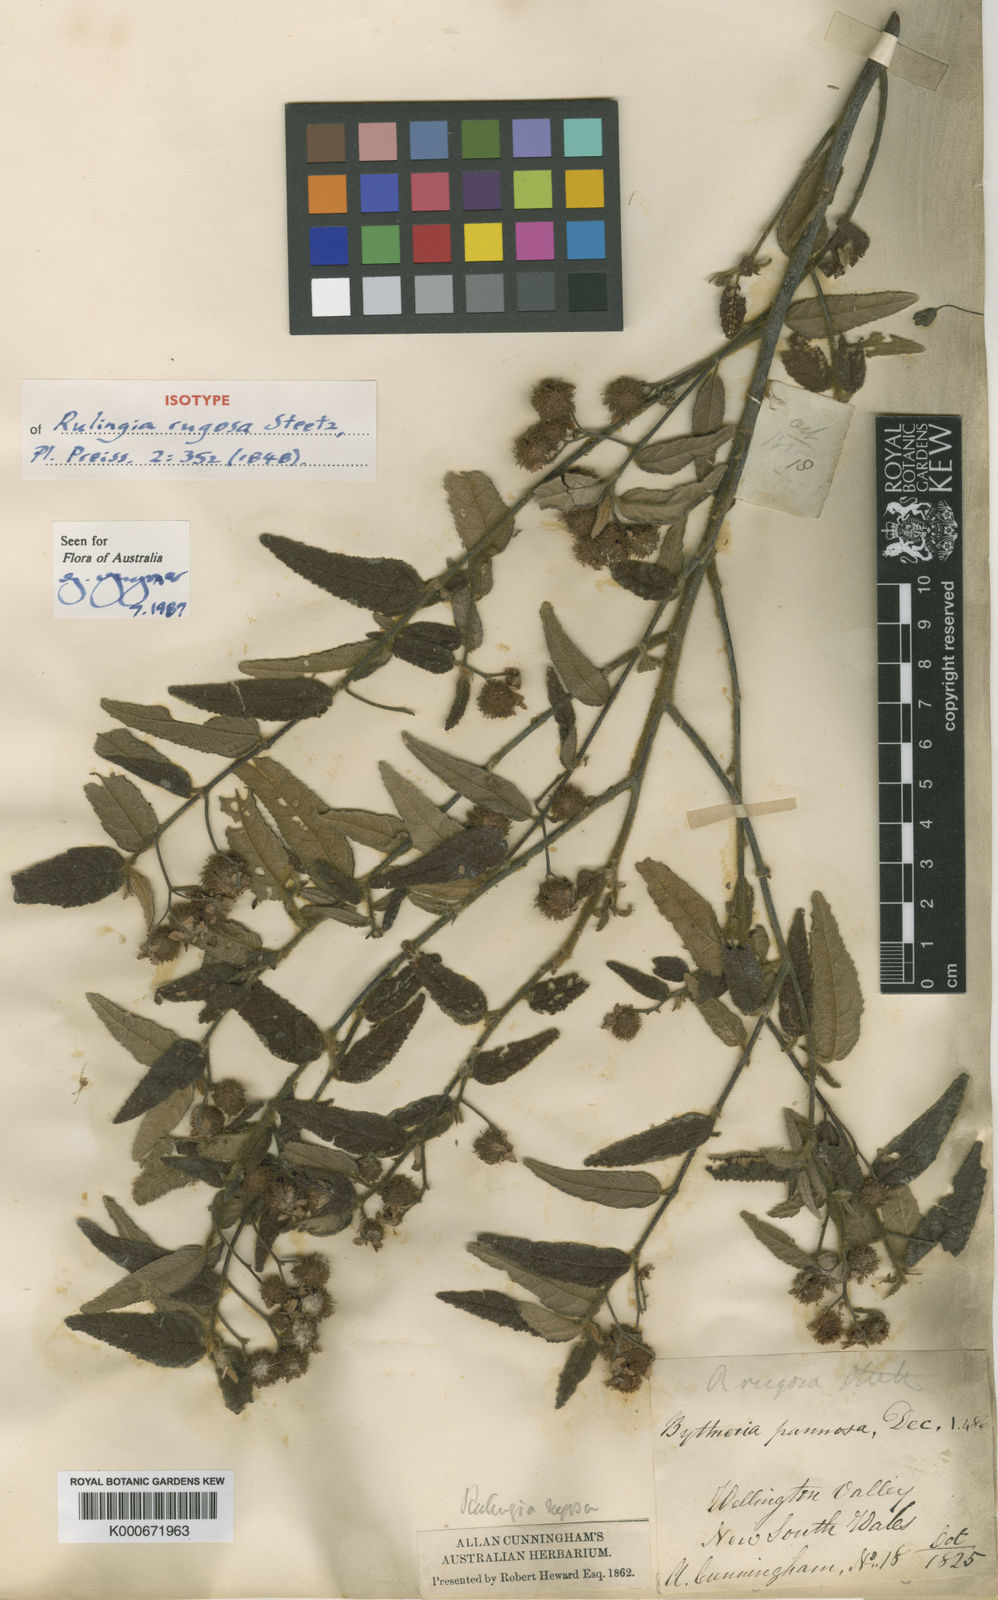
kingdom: Plantae
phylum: Tracheophyta
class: Magnoliopsida
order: Malvales
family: Malvaceae
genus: Commersonia
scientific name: Commersonia rugosa
